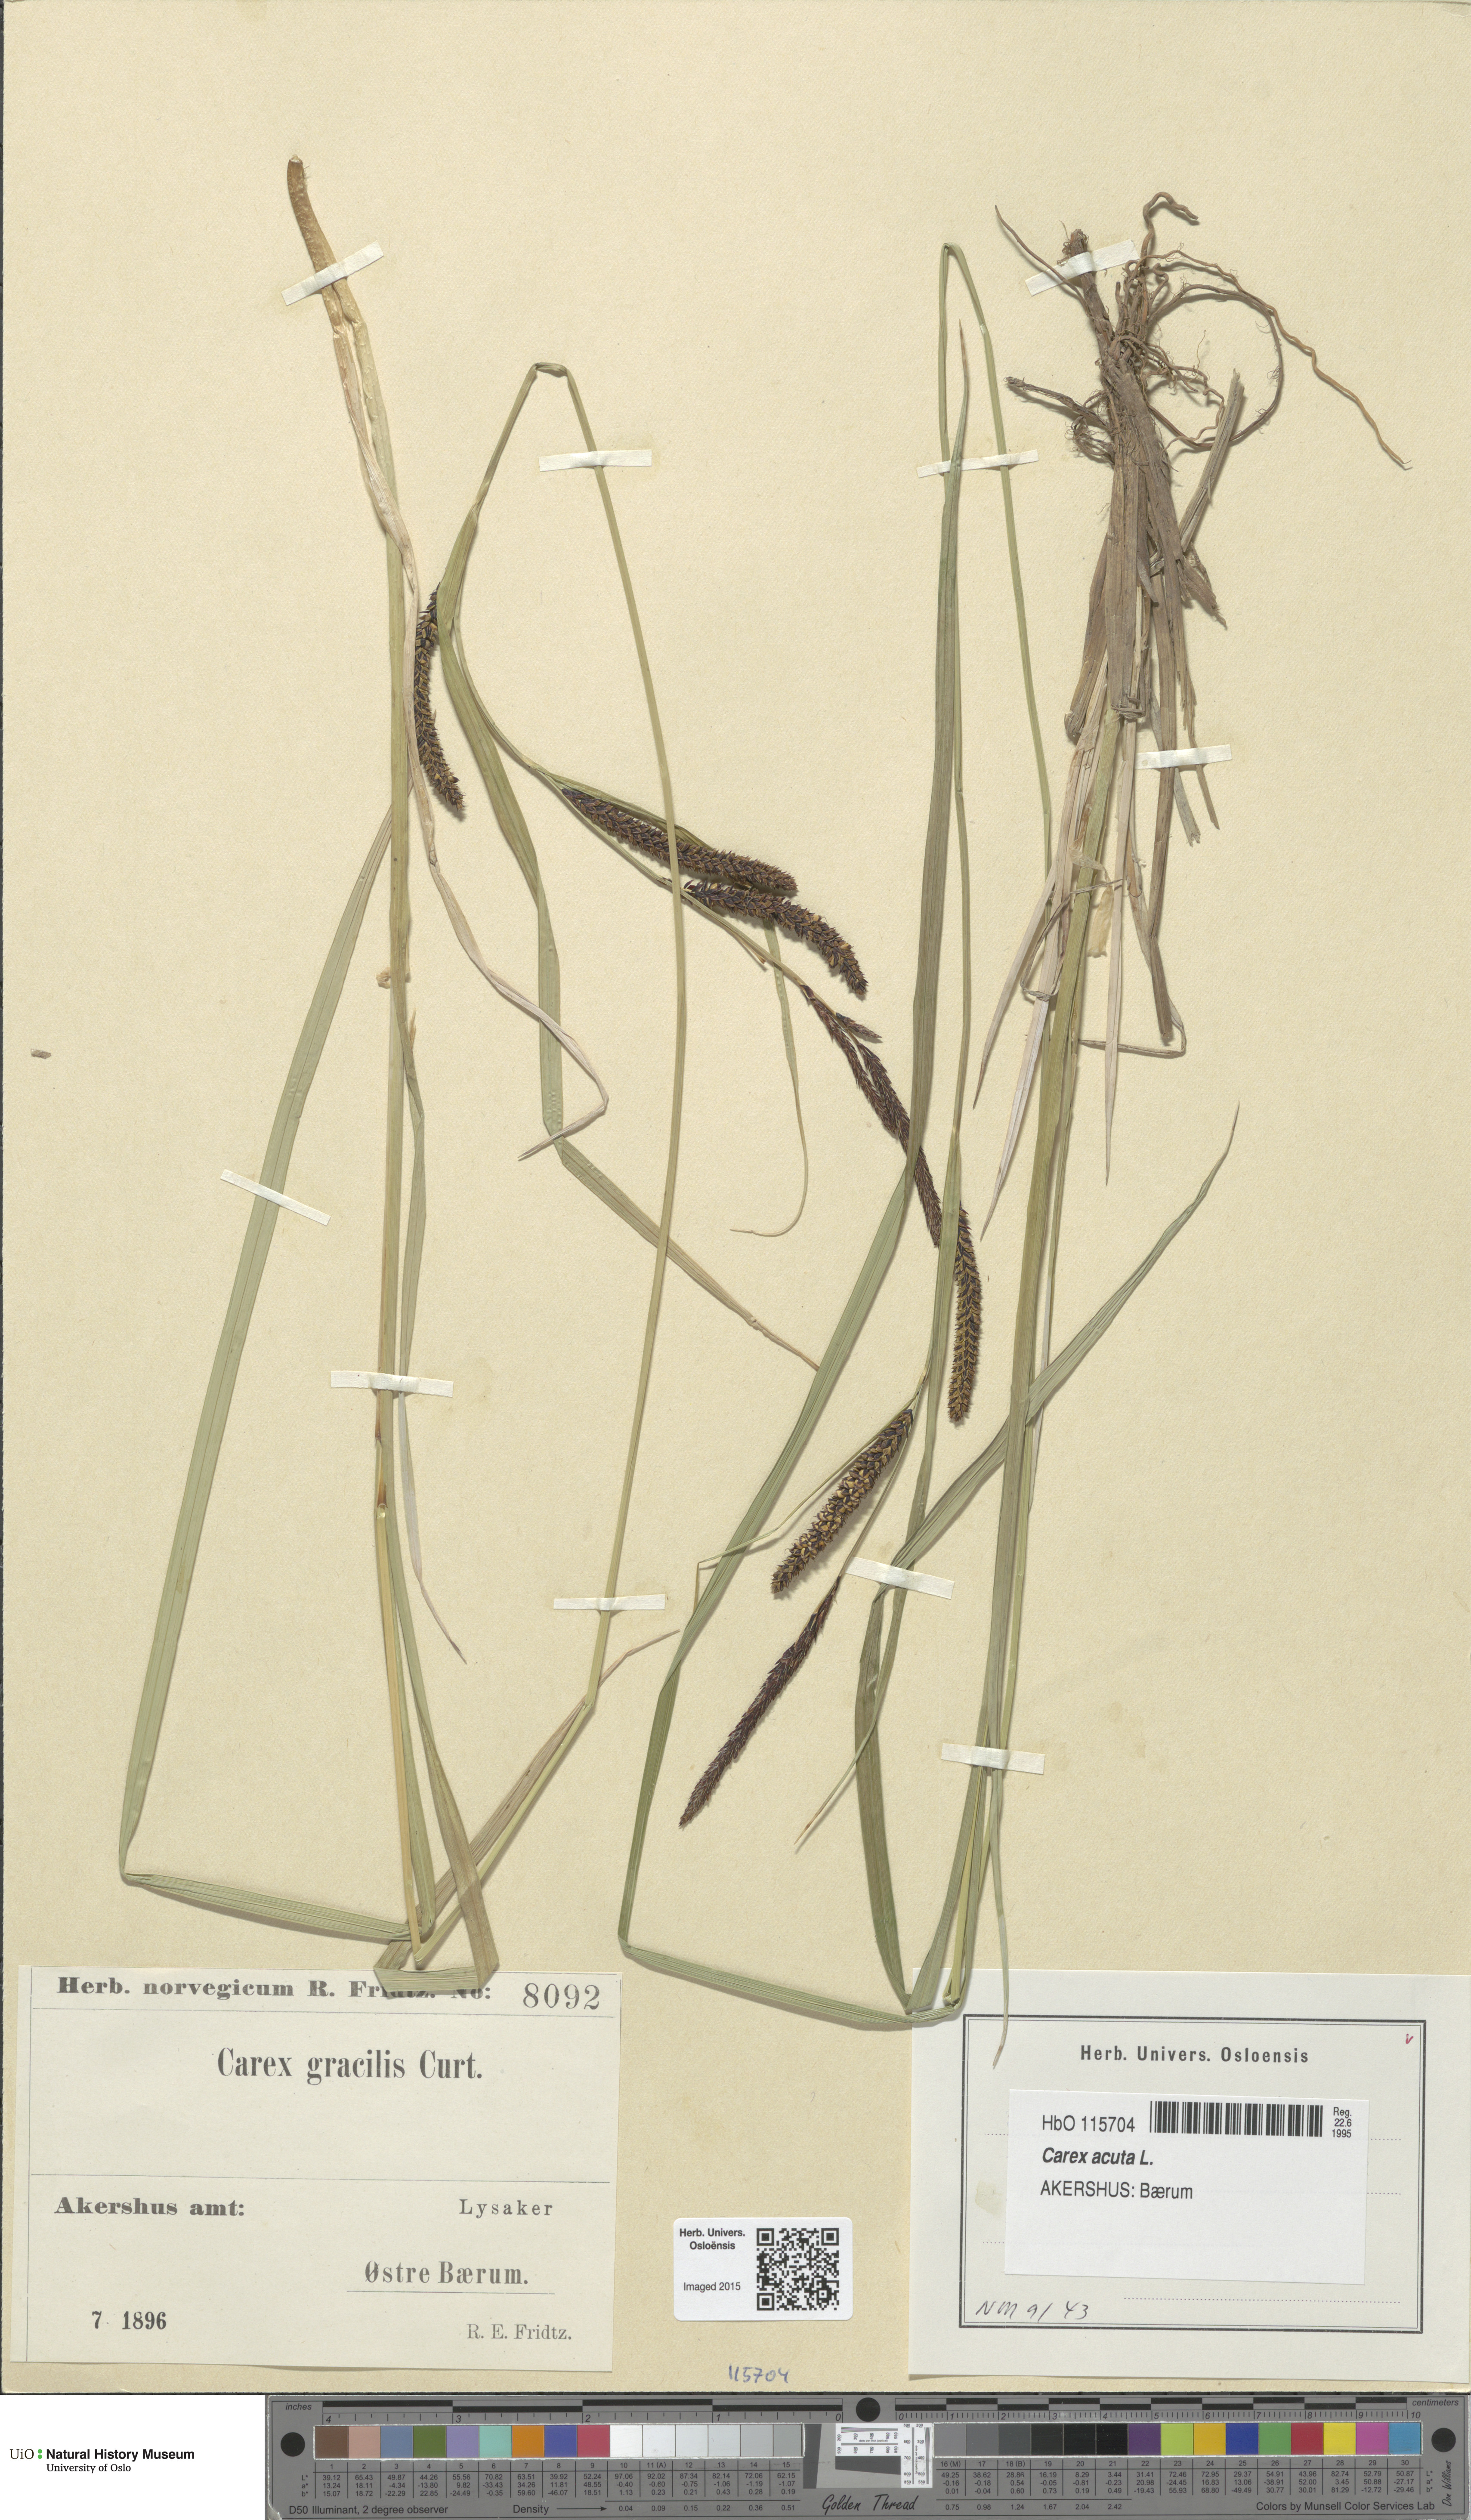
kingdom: Plantae
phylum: Tracheophyta
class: Liliopsida
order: Poales
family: Cyperaceae
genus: Carex
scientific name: Carex acuta
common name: Slender tufted-sedge
